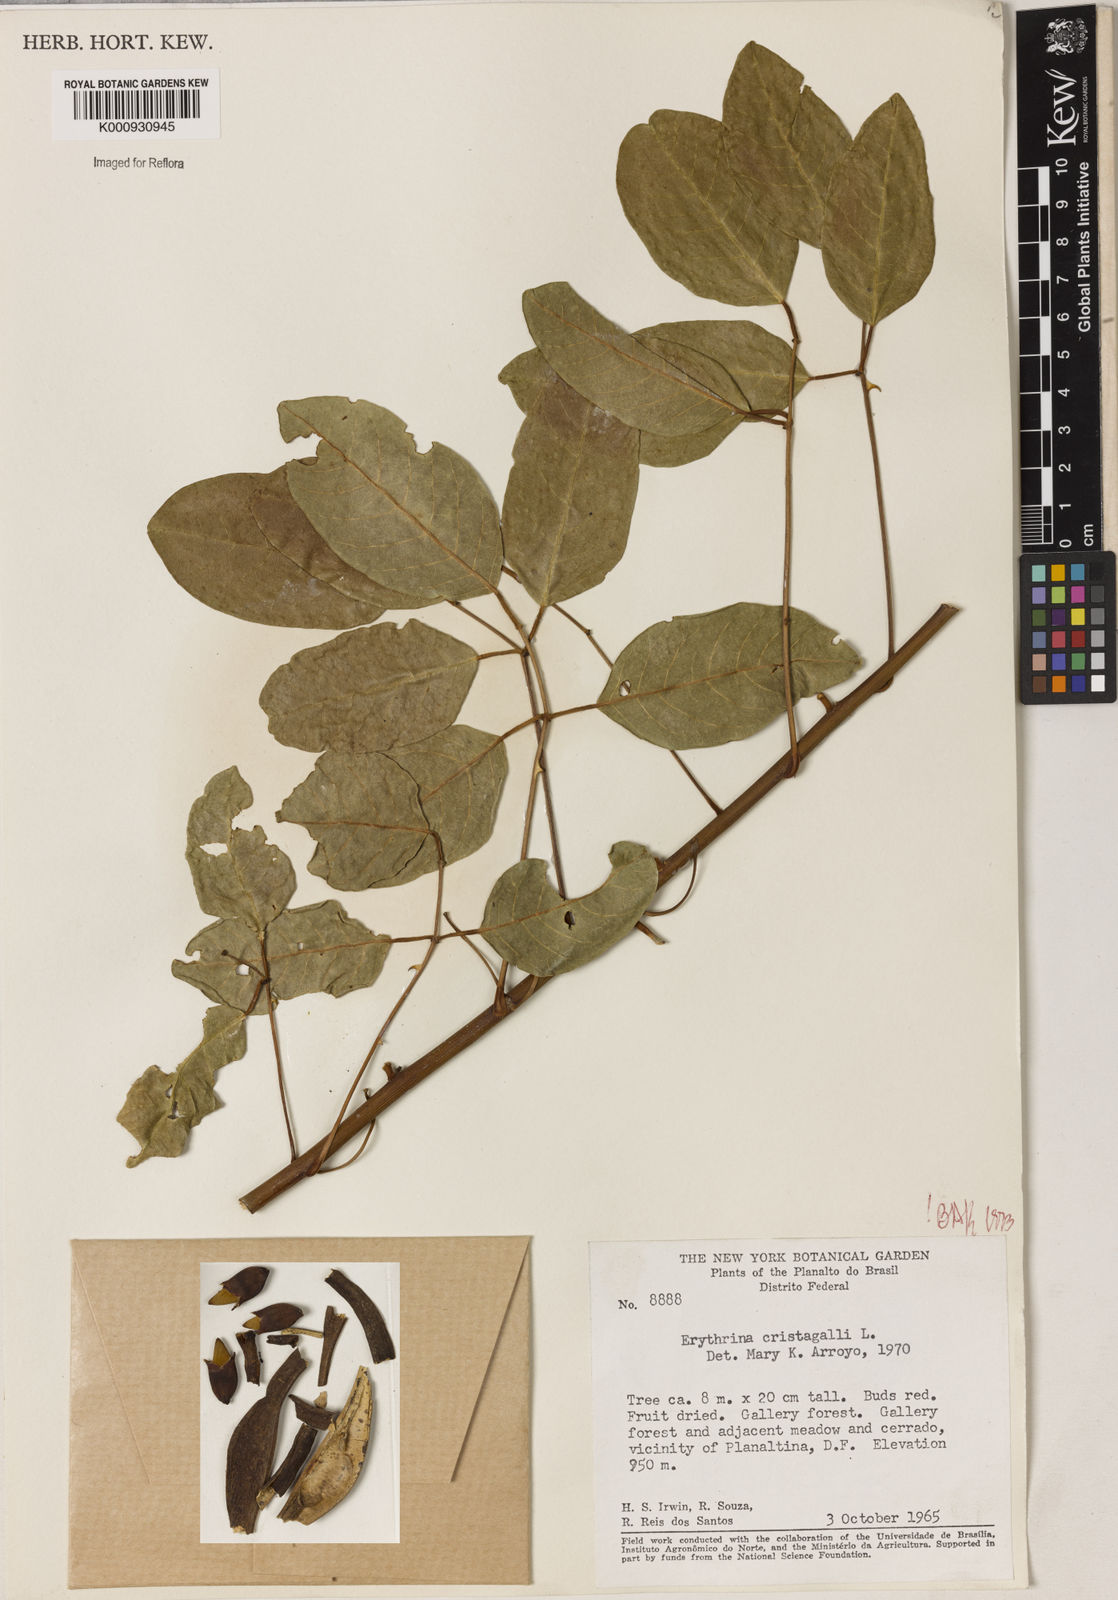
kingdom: Plantae
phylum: Tracheophyta
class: Magnoliopsida
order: Fabales
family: Fabaceae
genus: Erythrina
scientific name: Erythrina crista-galli
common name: Cockspur coral tree
